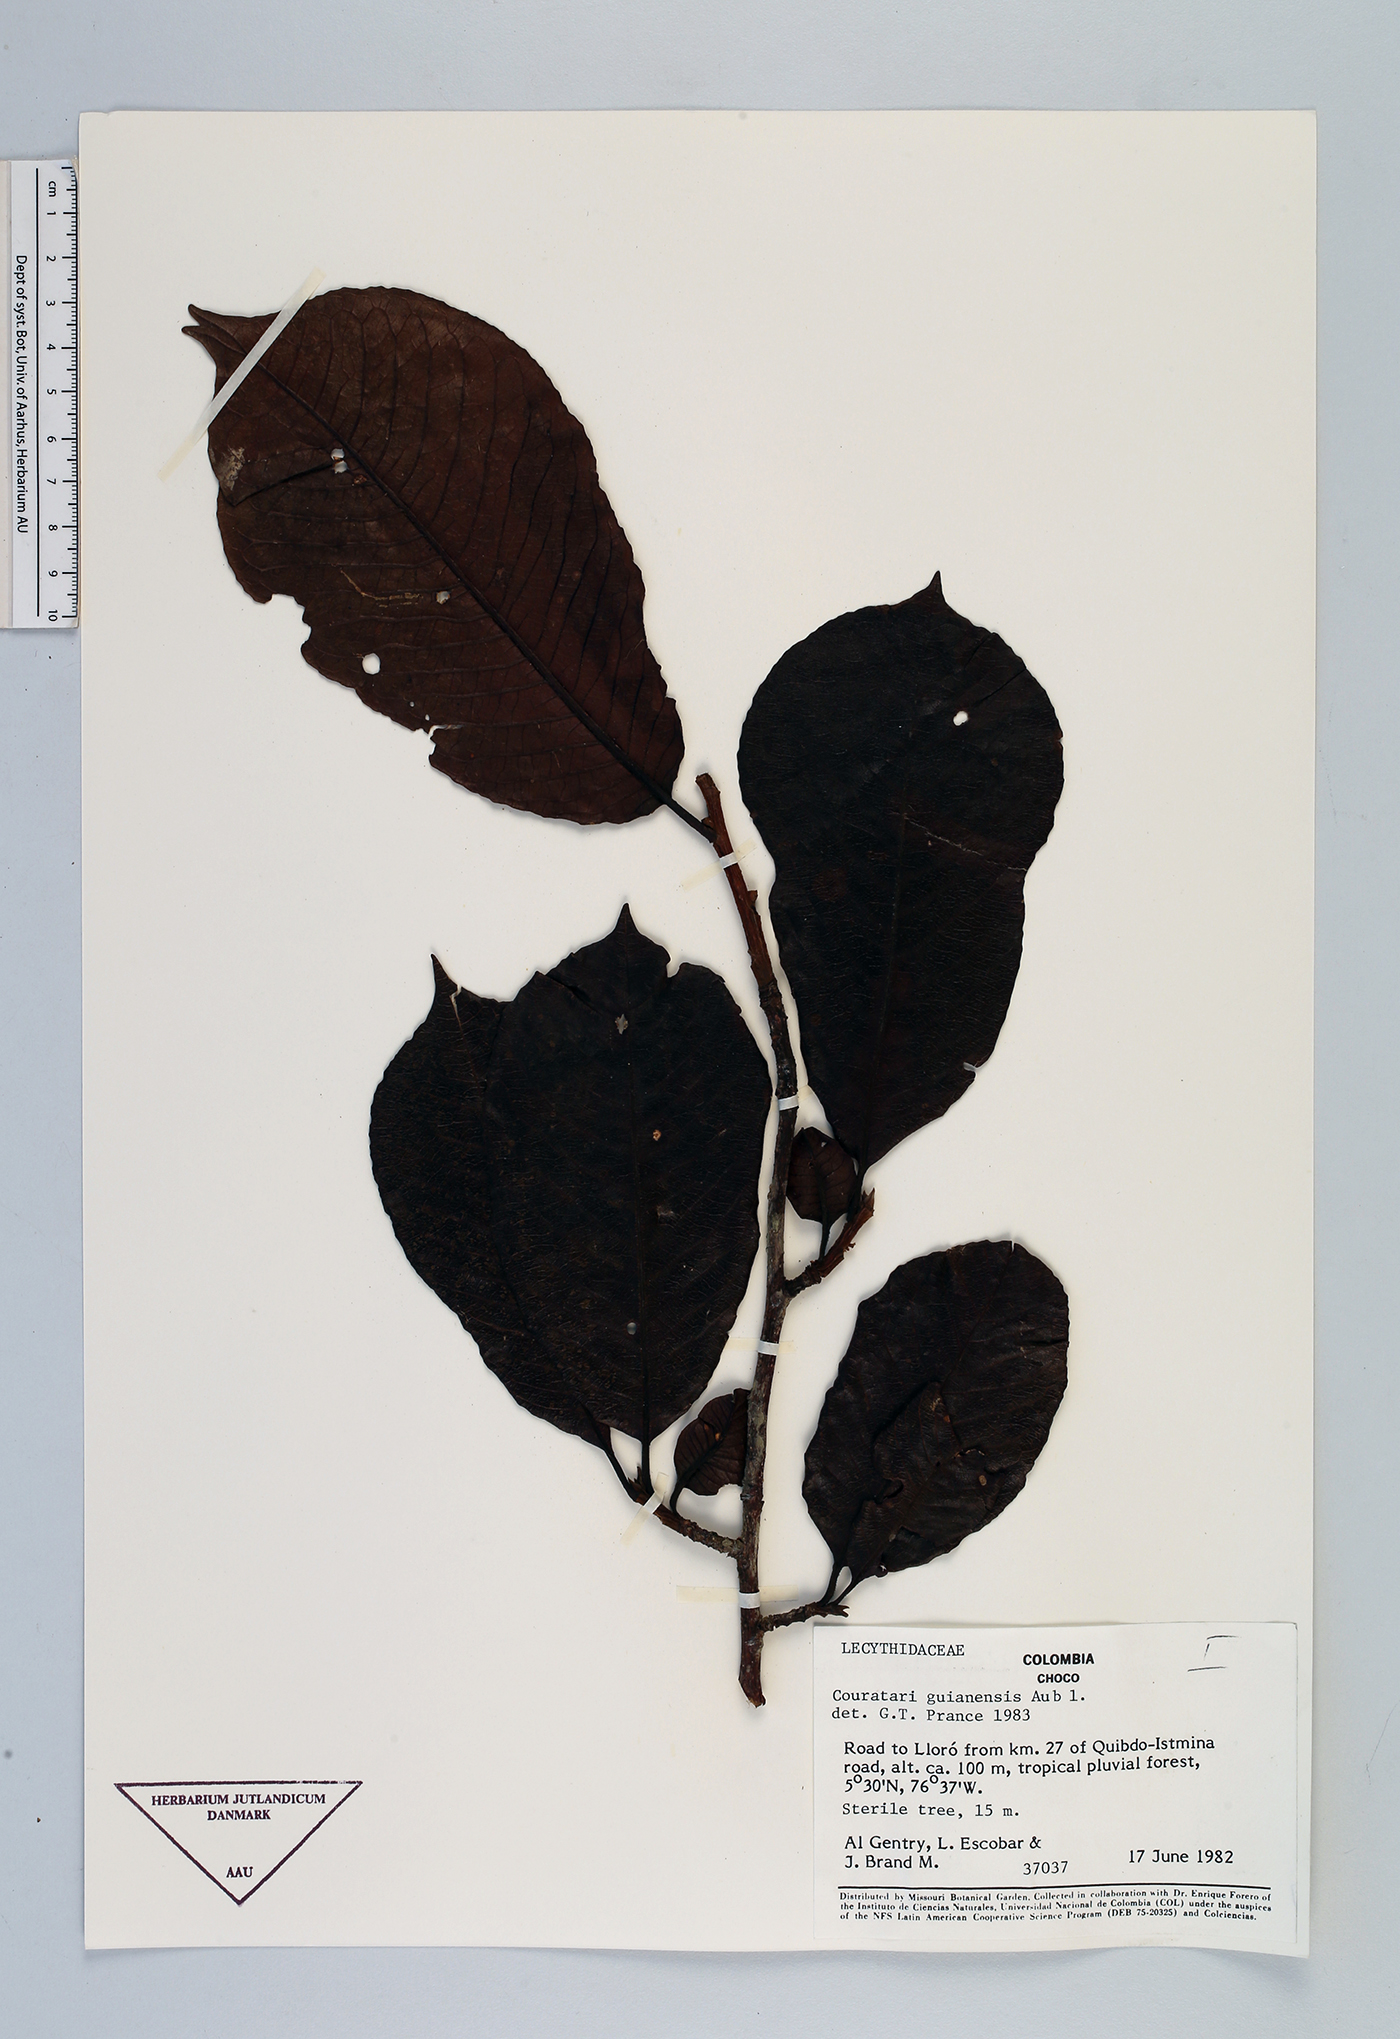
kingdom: Plantae
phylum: Tracheophyta
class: Magnoliopsida
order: Ericales
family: Lecythidaceae
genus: Couratari
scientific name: Couratari guianensis
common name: Fine-leaf wadara
